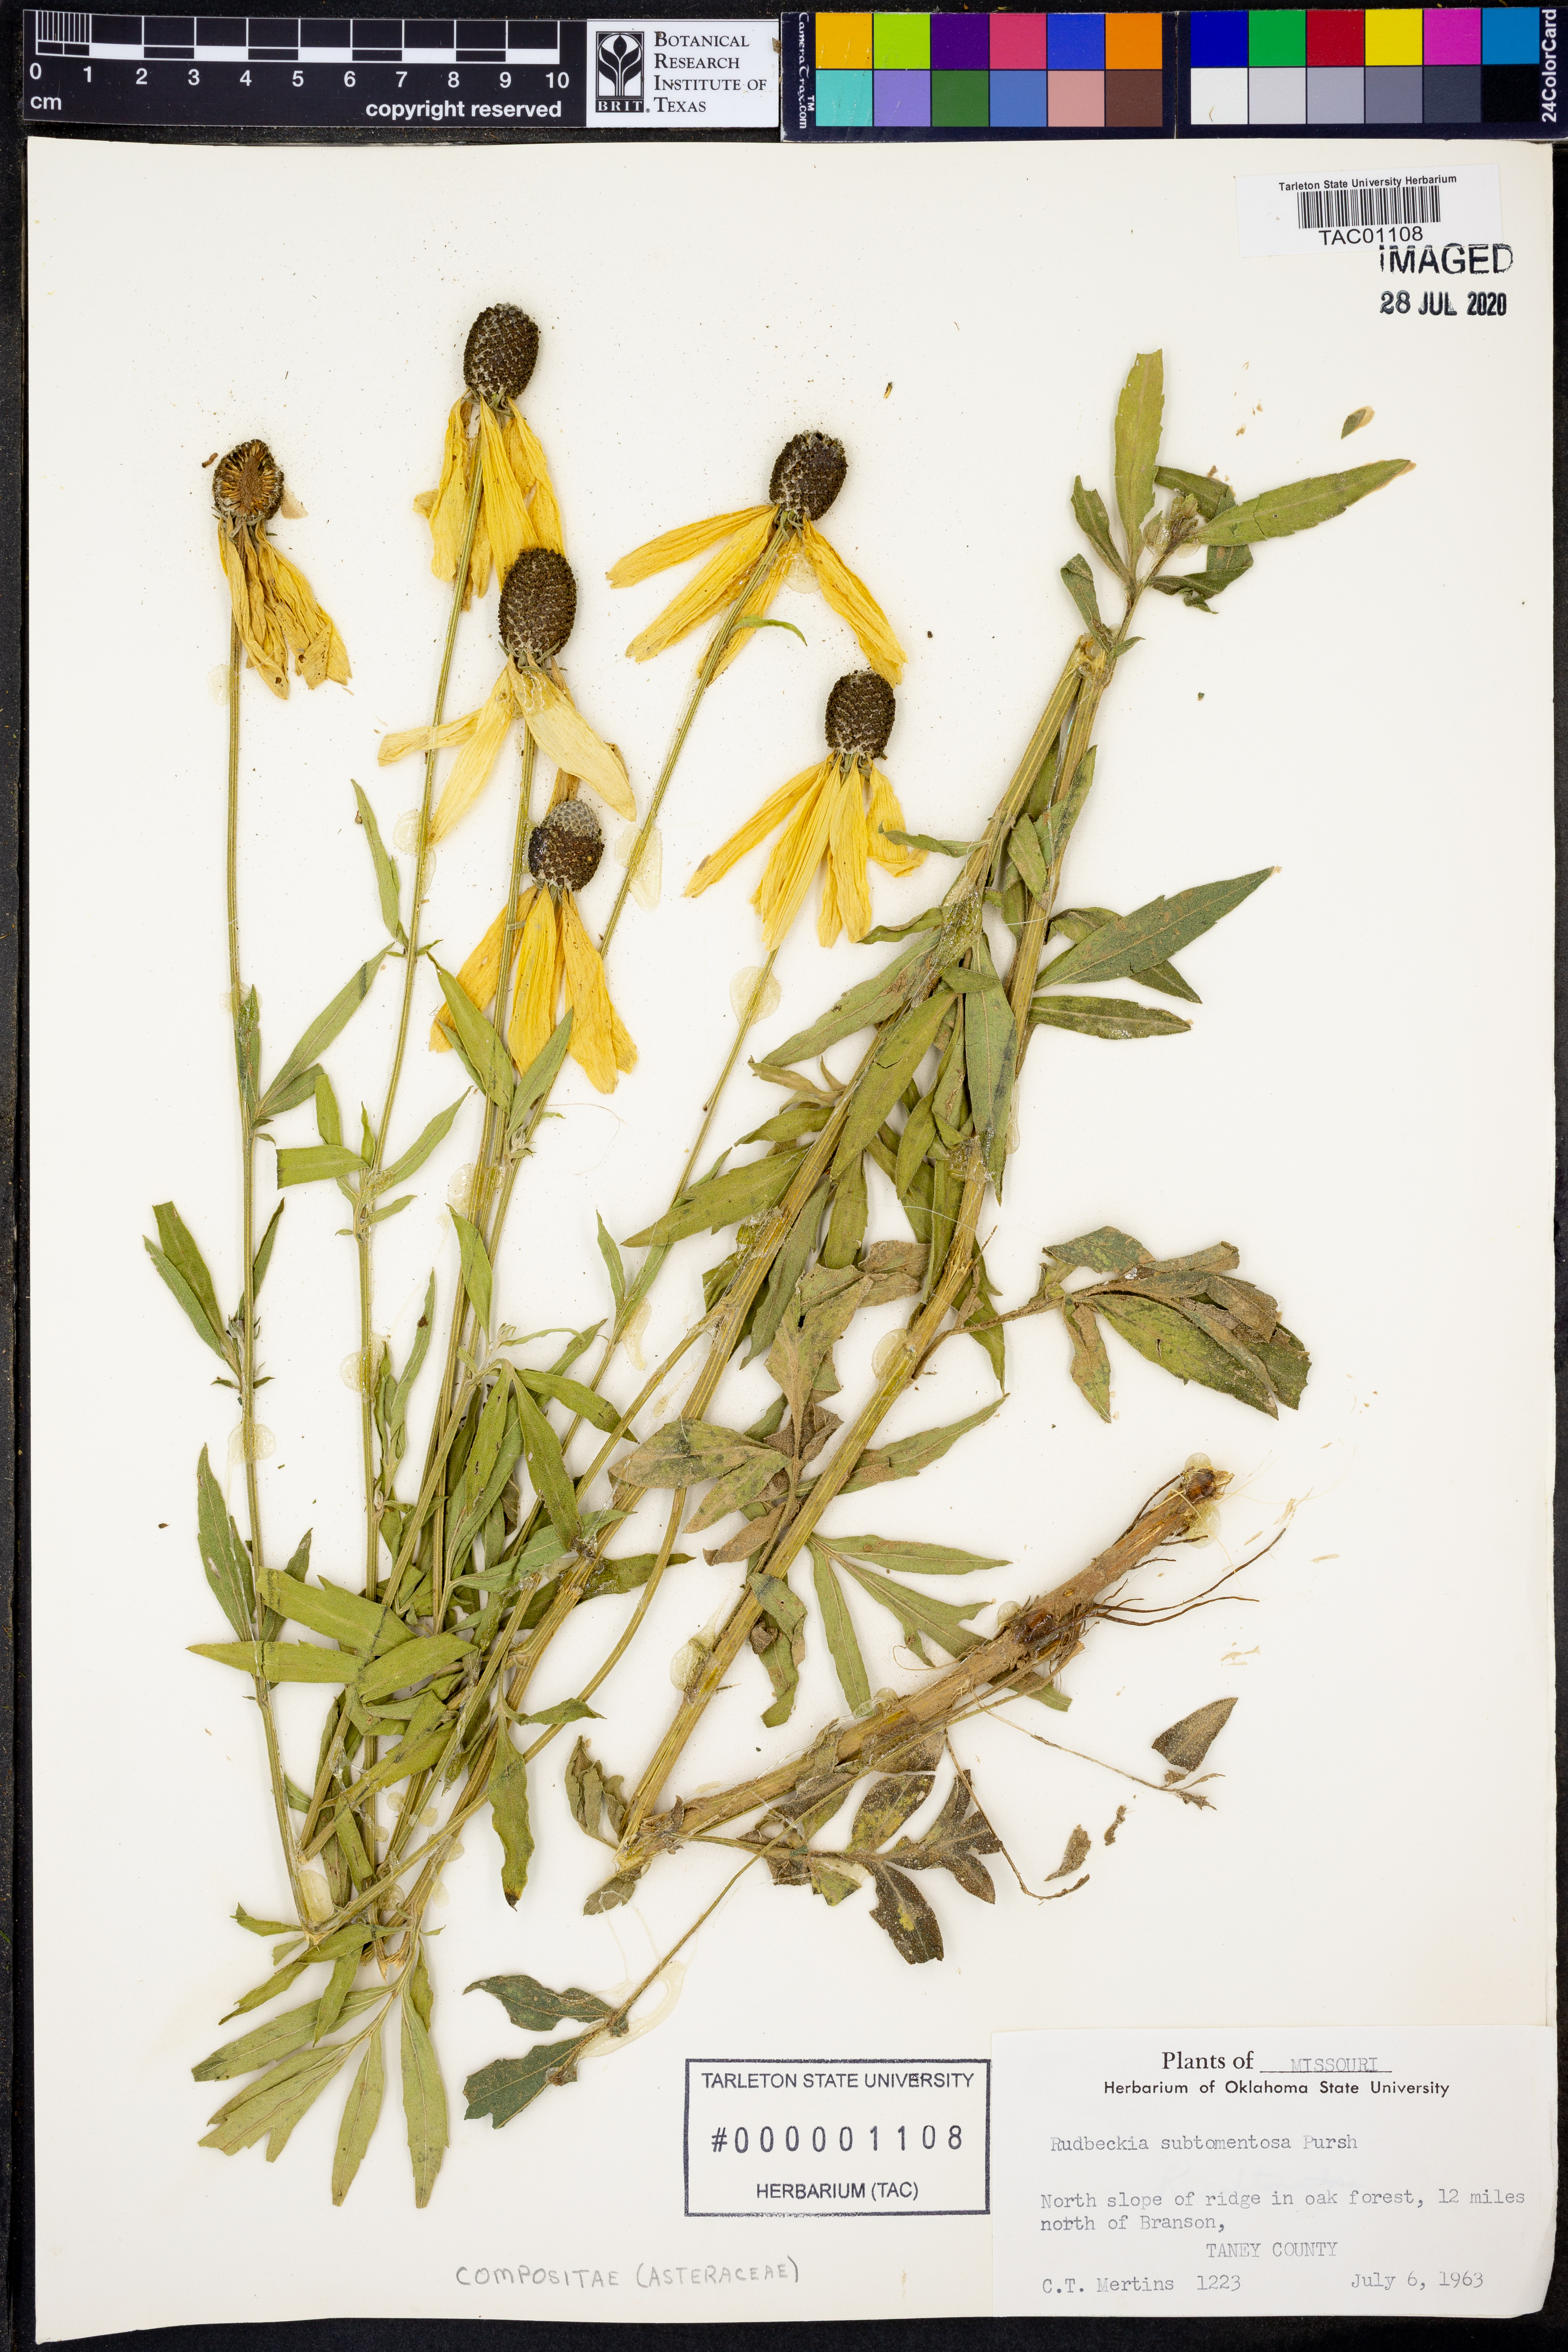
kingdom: Plantae
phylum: Tracheophyta
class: Magnoliopsida
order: Asterales
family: Asteraceae
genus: Rudbeckia
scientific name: Rudbeckia subtomentosa
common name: Sweet coneflower
